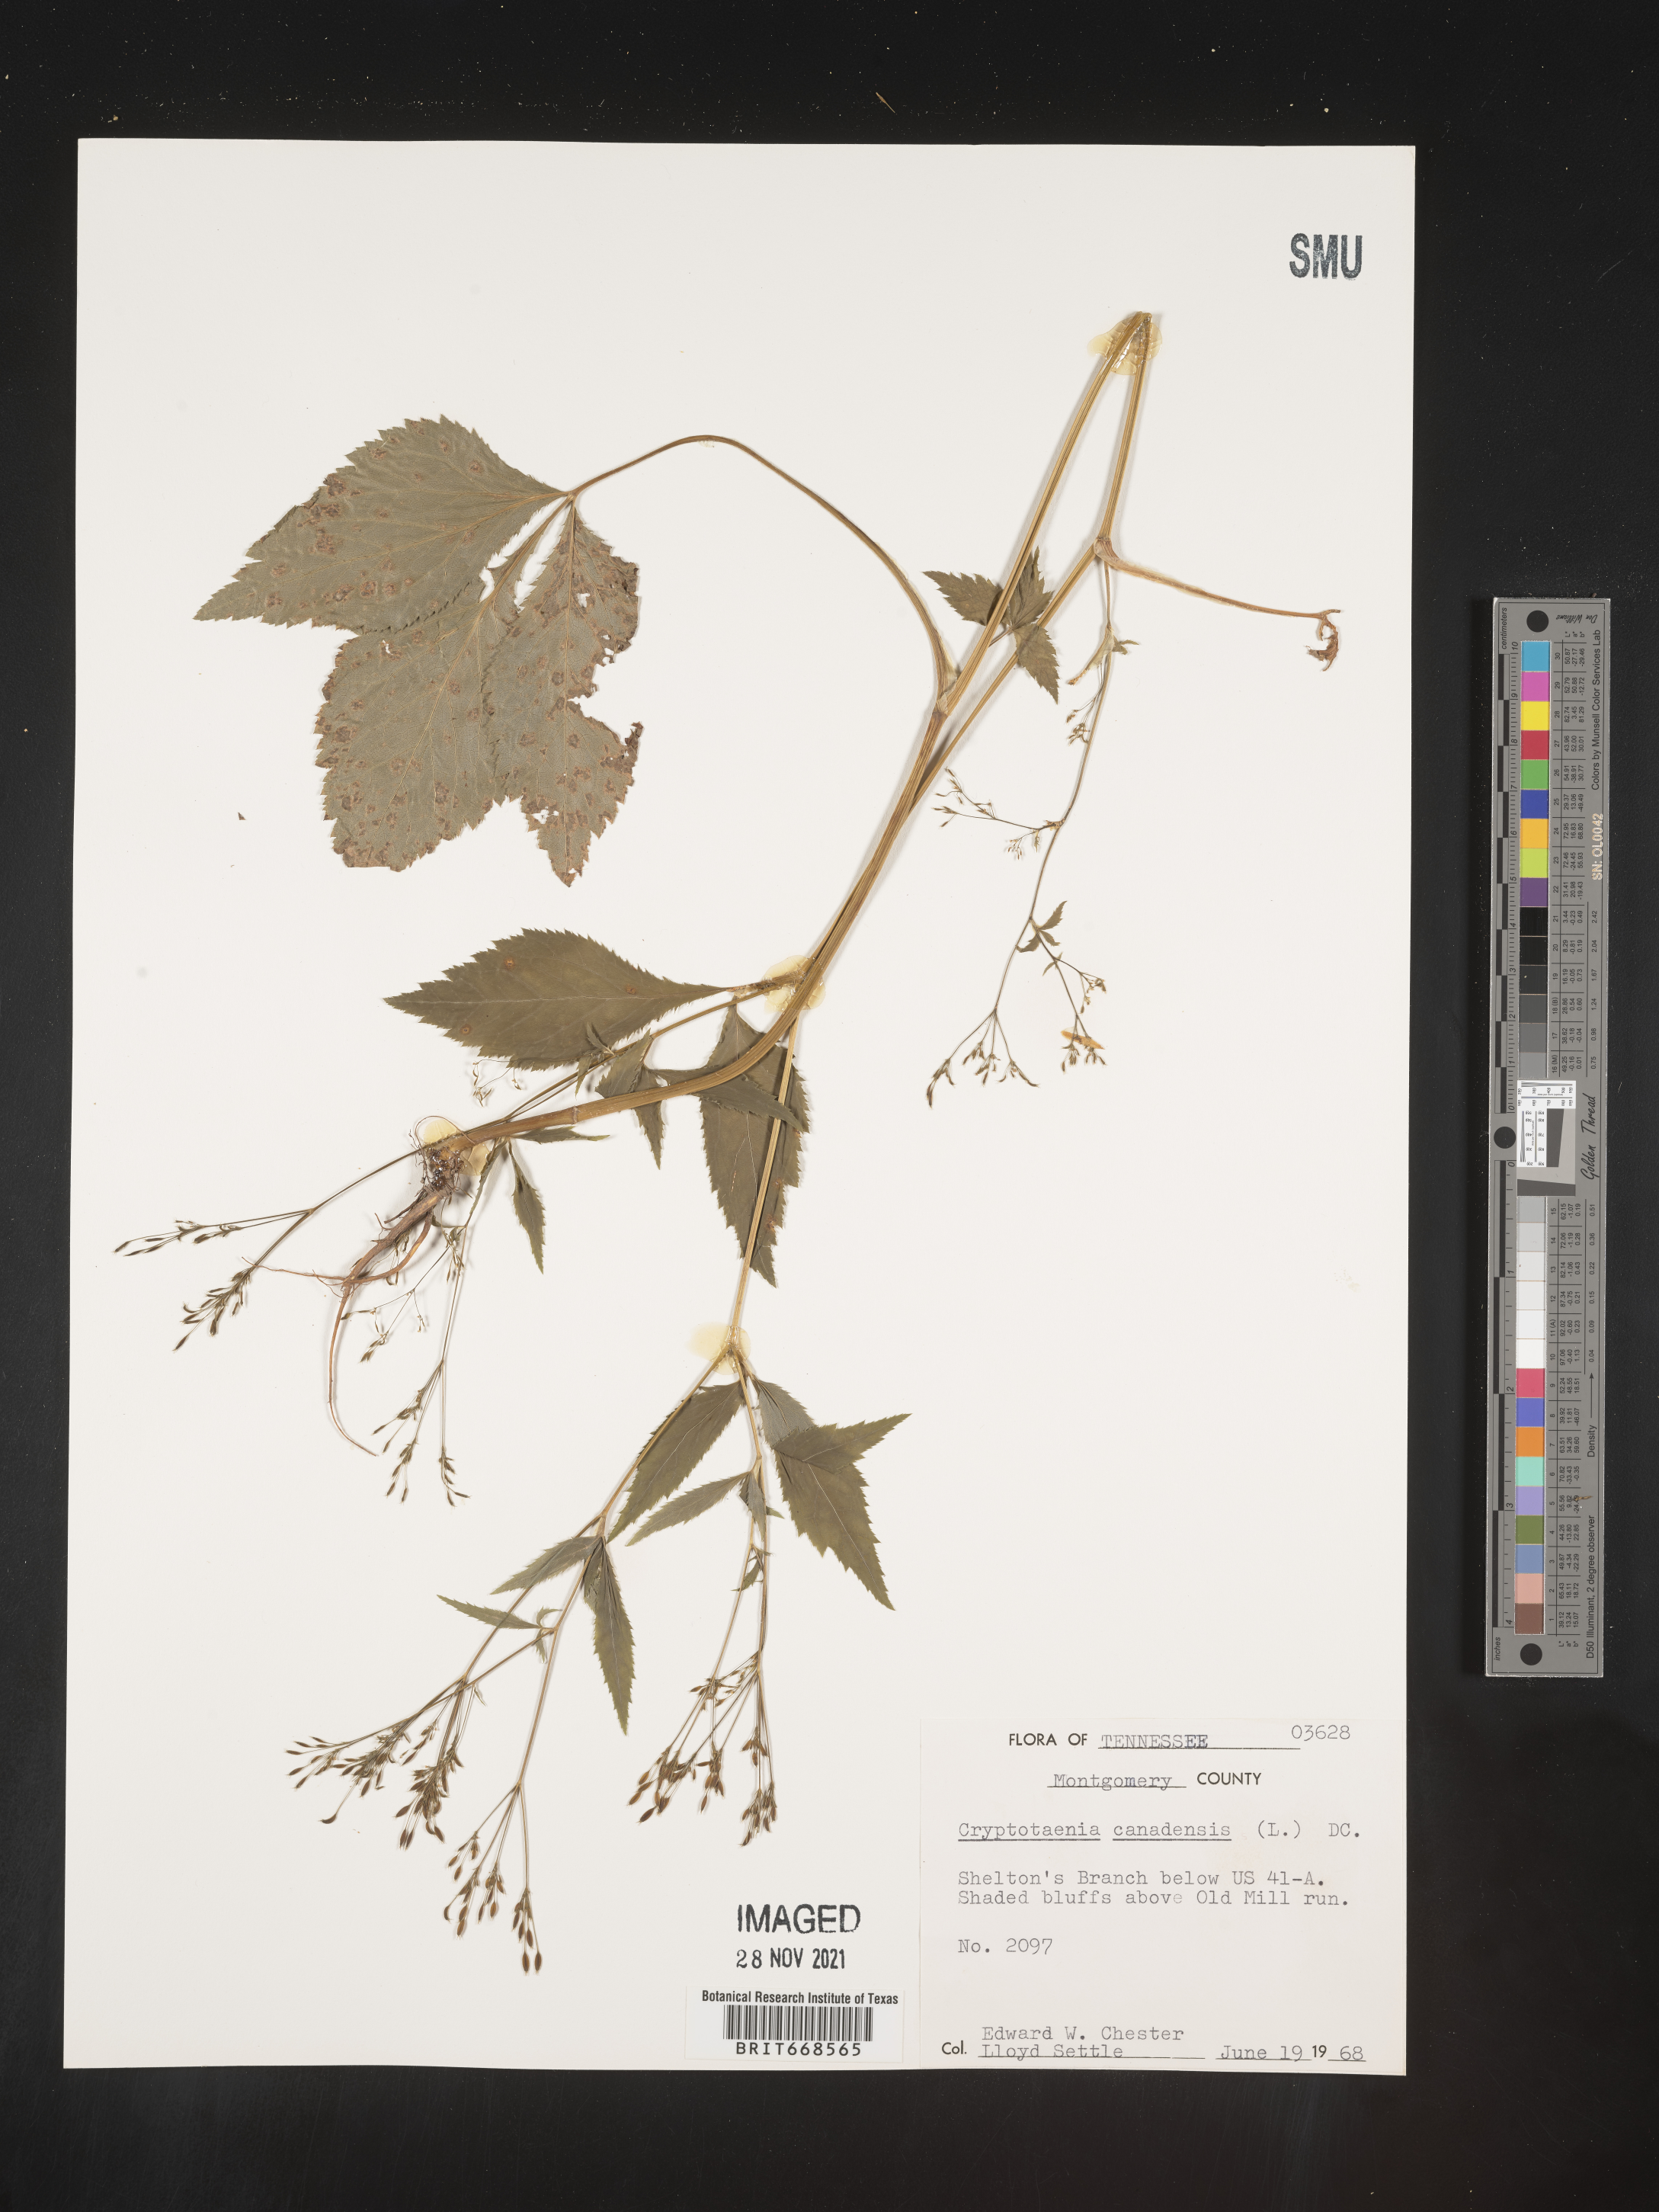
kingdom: Plantae
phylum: Tracheophyta
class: Magnoliopsida
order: Apiales
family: Apiaceae
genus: Cryptotaenia
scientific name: Cryptotaenia canadensis
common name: Honewort
